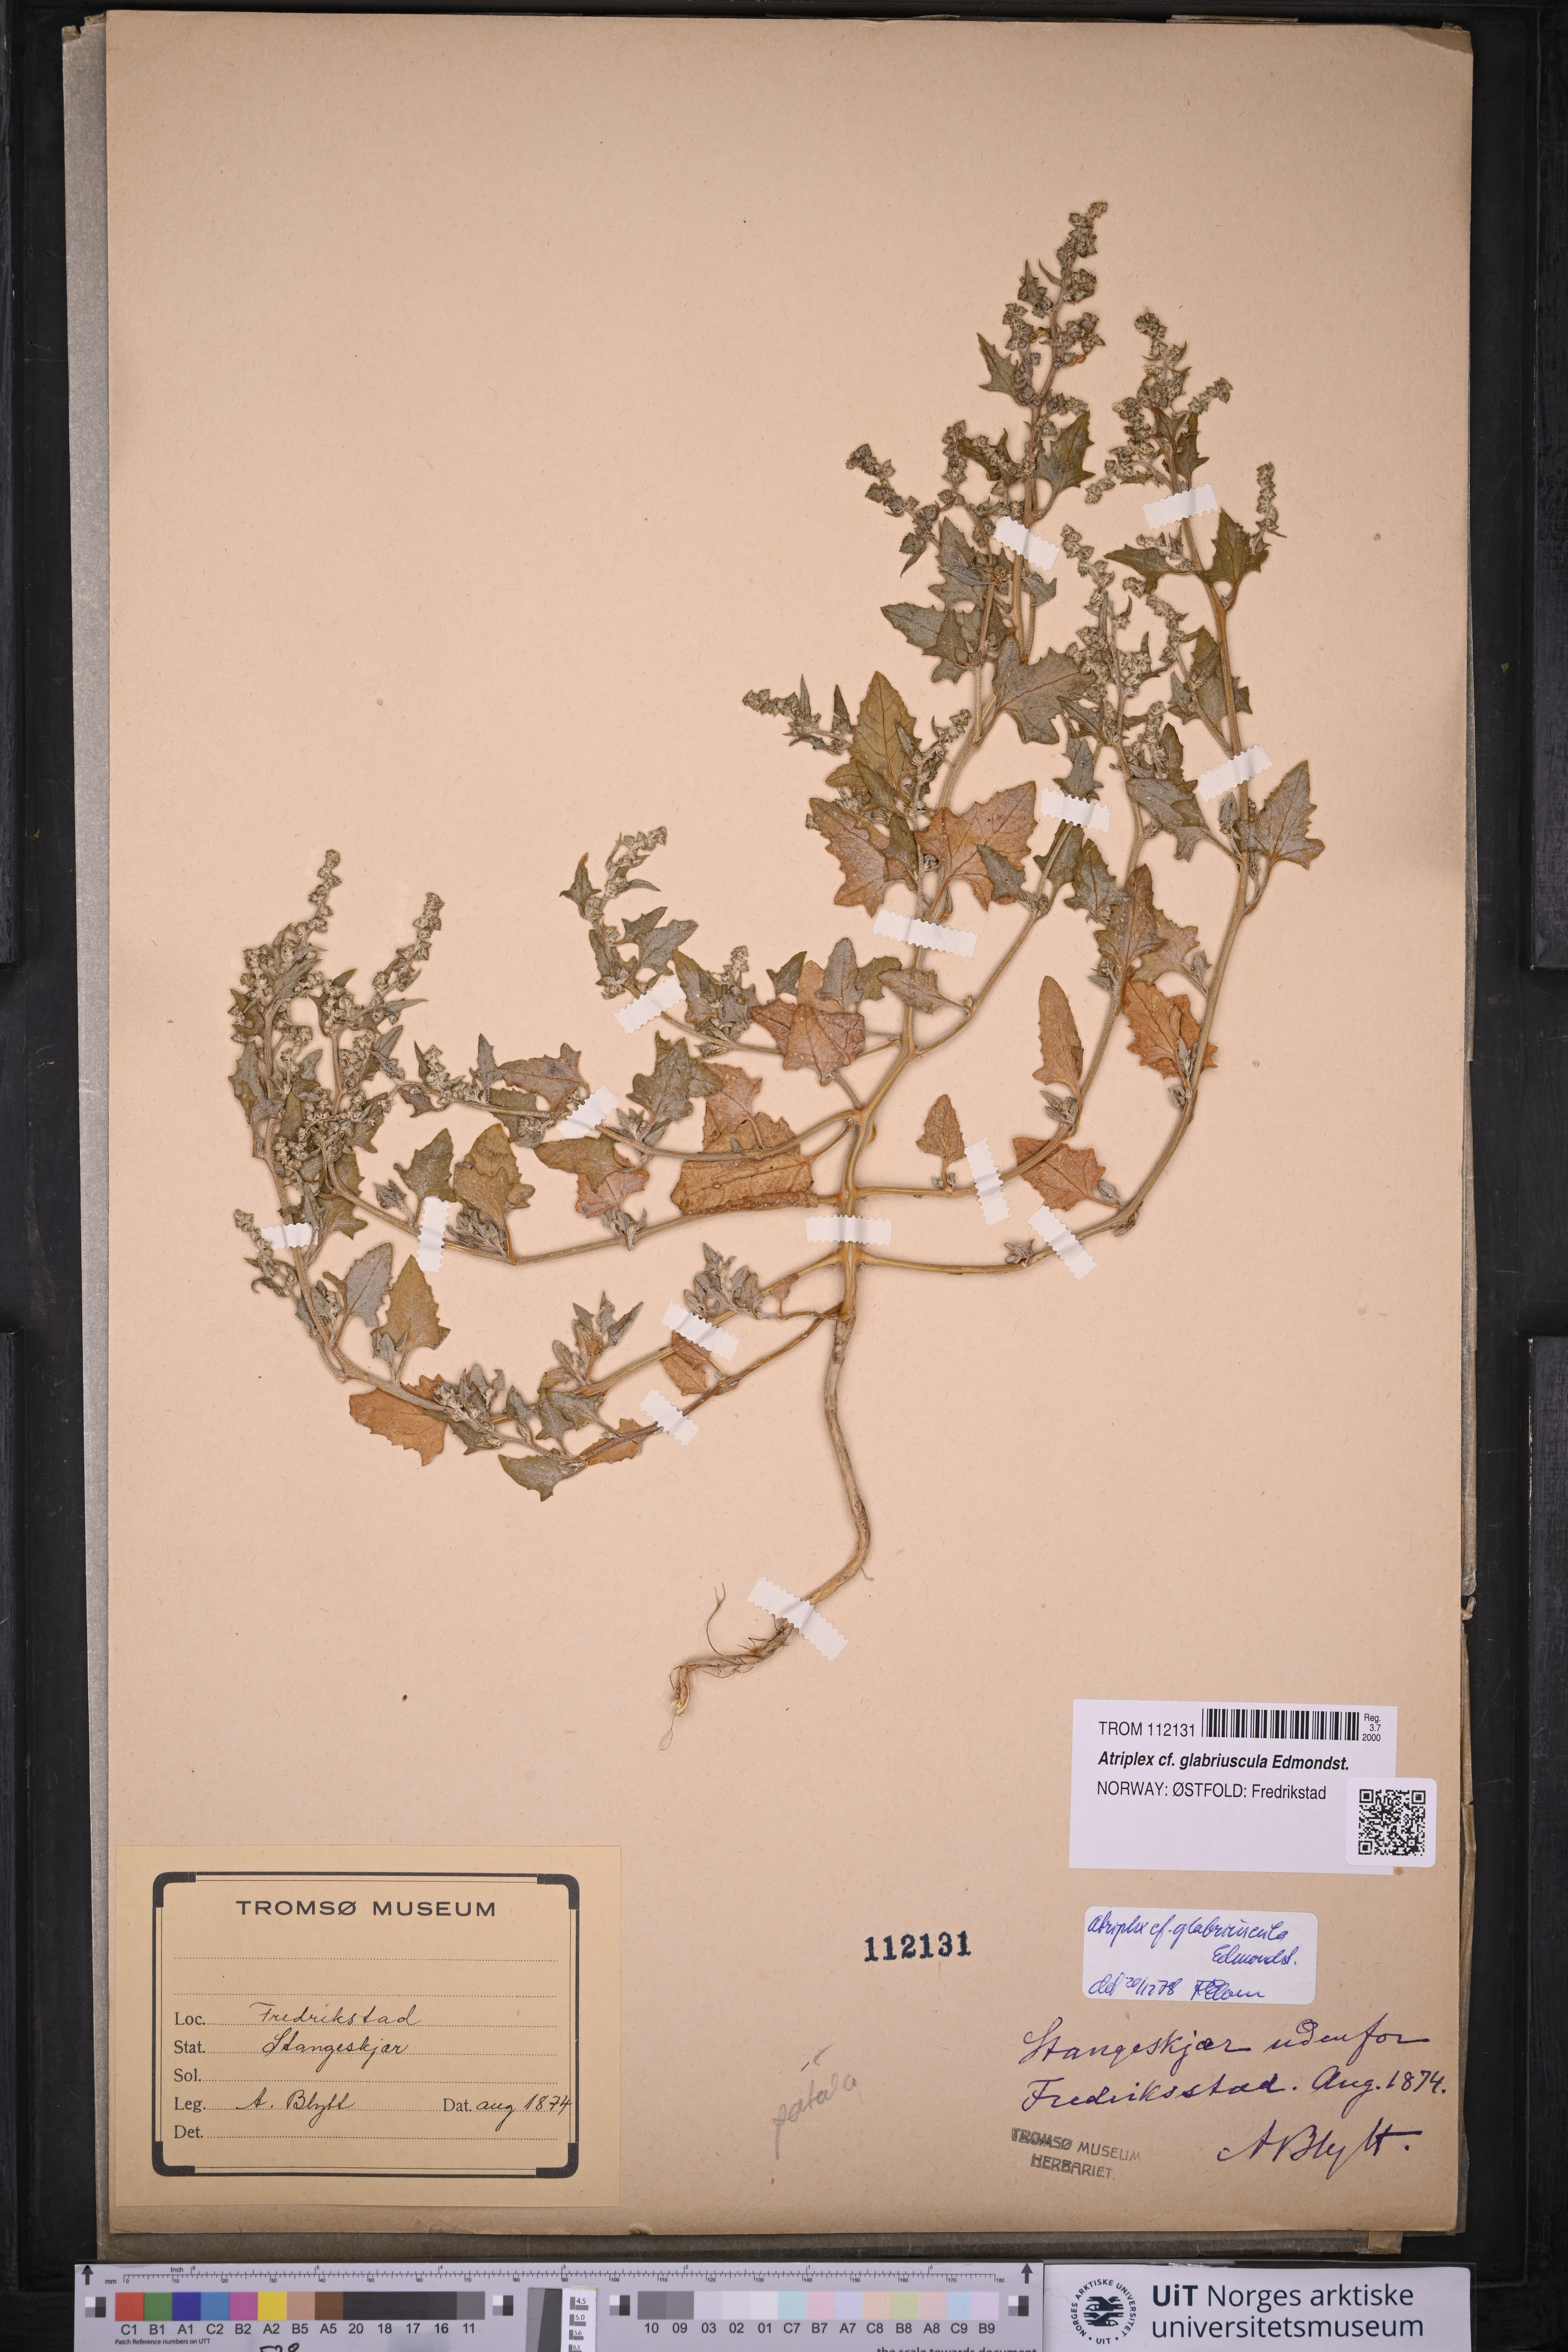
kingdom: Plantae
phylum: Tracheophyta
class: Magnoliopsida
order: Caryophyllales
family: Amaranthaceae
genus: Atriplex
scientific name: Atriplex glabriuscula
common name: Babington's orache
